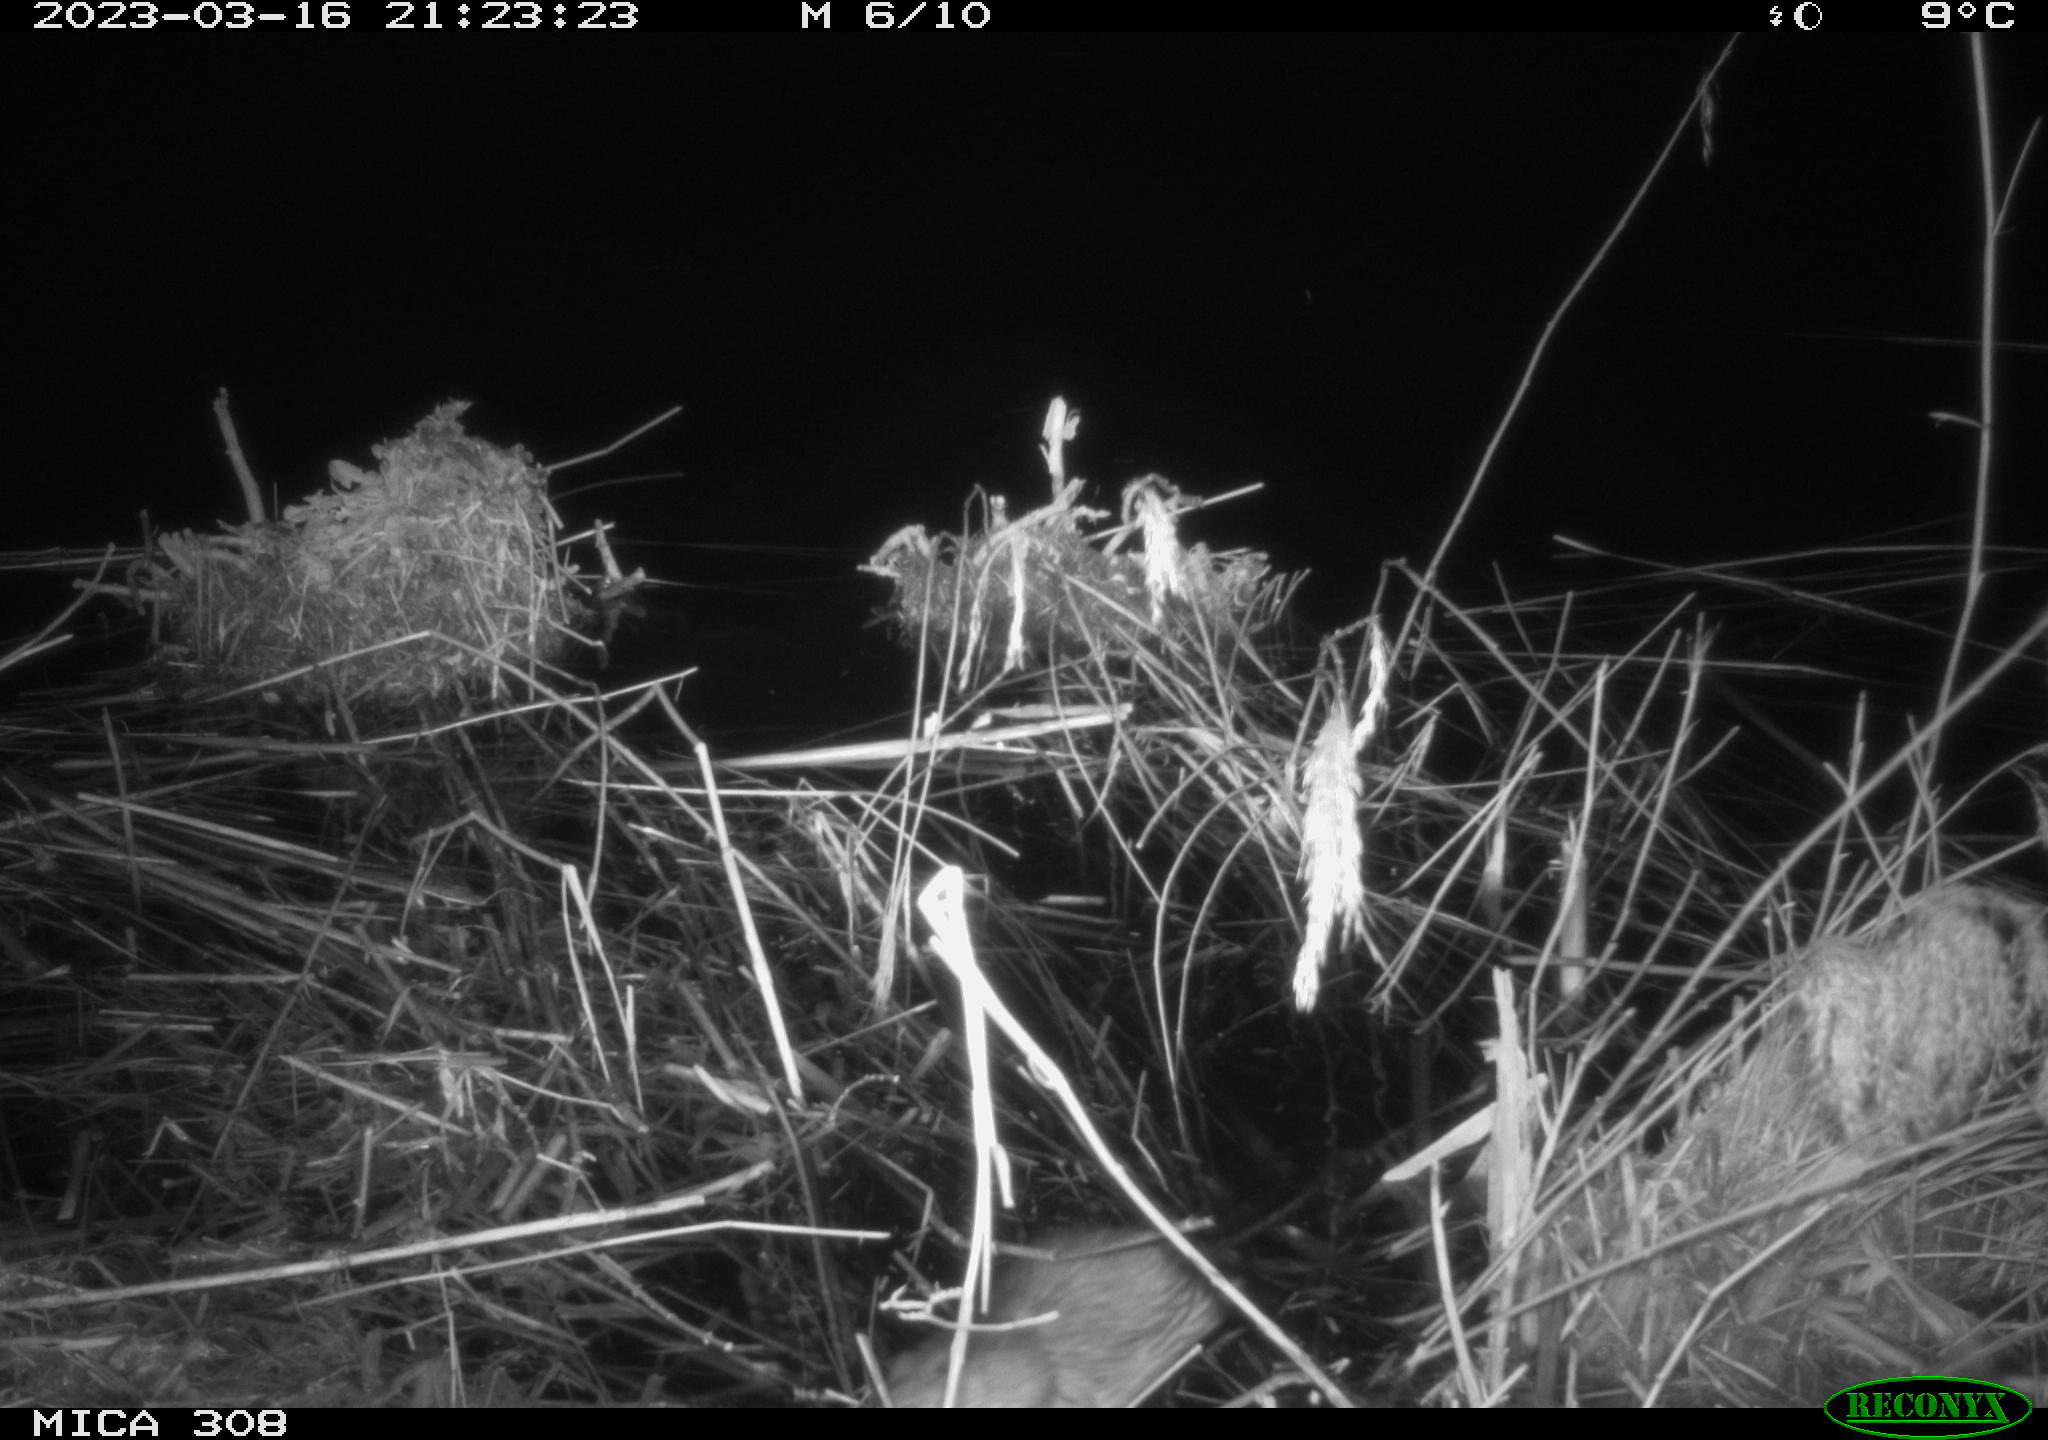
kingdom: Animalia
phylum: Chordata
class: Mammalia
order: Rodentia
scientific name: Rodentia
